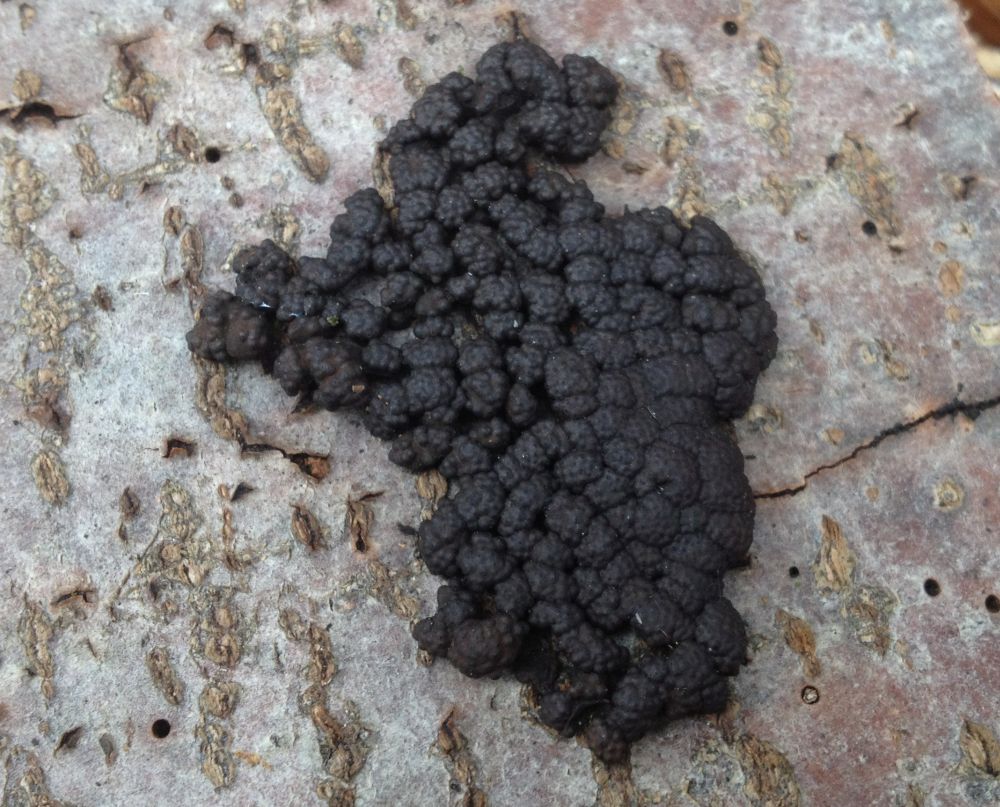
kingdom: Fungi
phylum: Ascomycota
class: Sordariomycetes
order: Xylariales
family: Hypoxylaceae
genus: Jackrogersella
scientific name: Jackrogersella cohaerens
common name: sammenflydende kulbær
